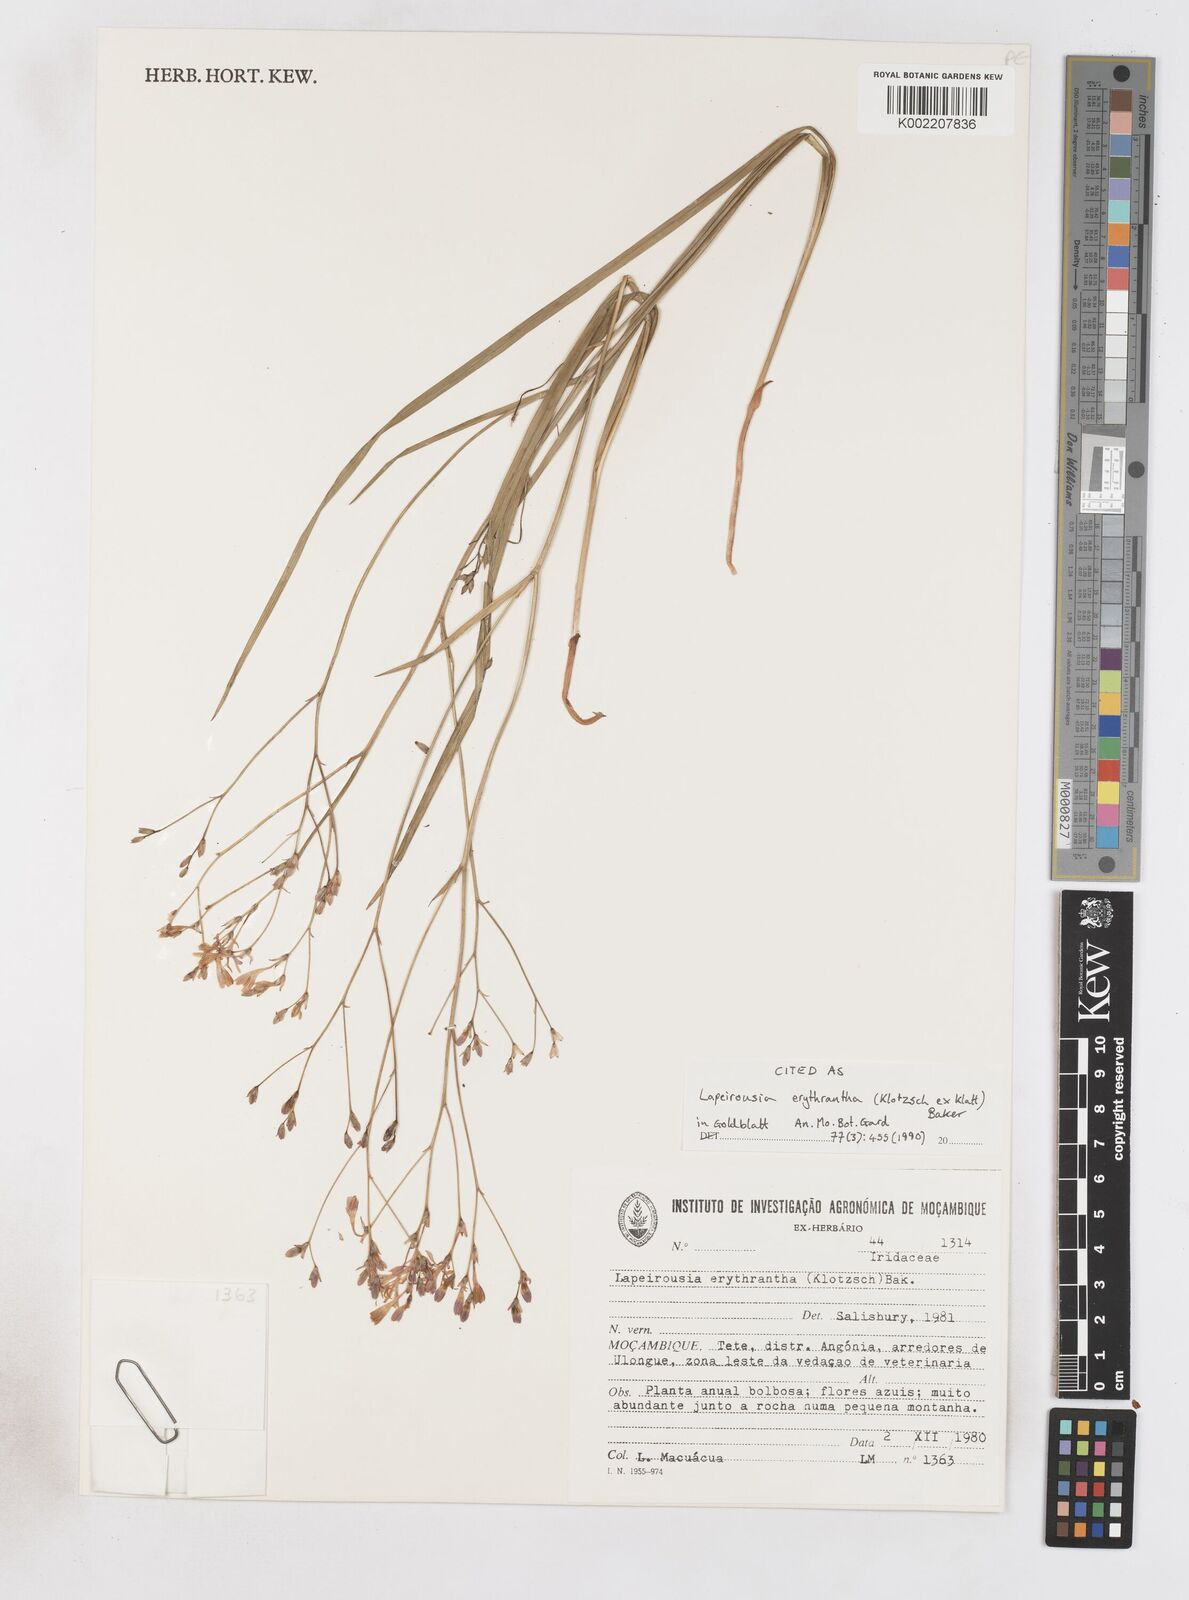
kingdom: Plantae
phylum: Tracheophyta
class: Liliopsida
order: Asparagales
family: Iridaceae
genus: Afrosolen
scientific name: Afrosolen erythranthus
